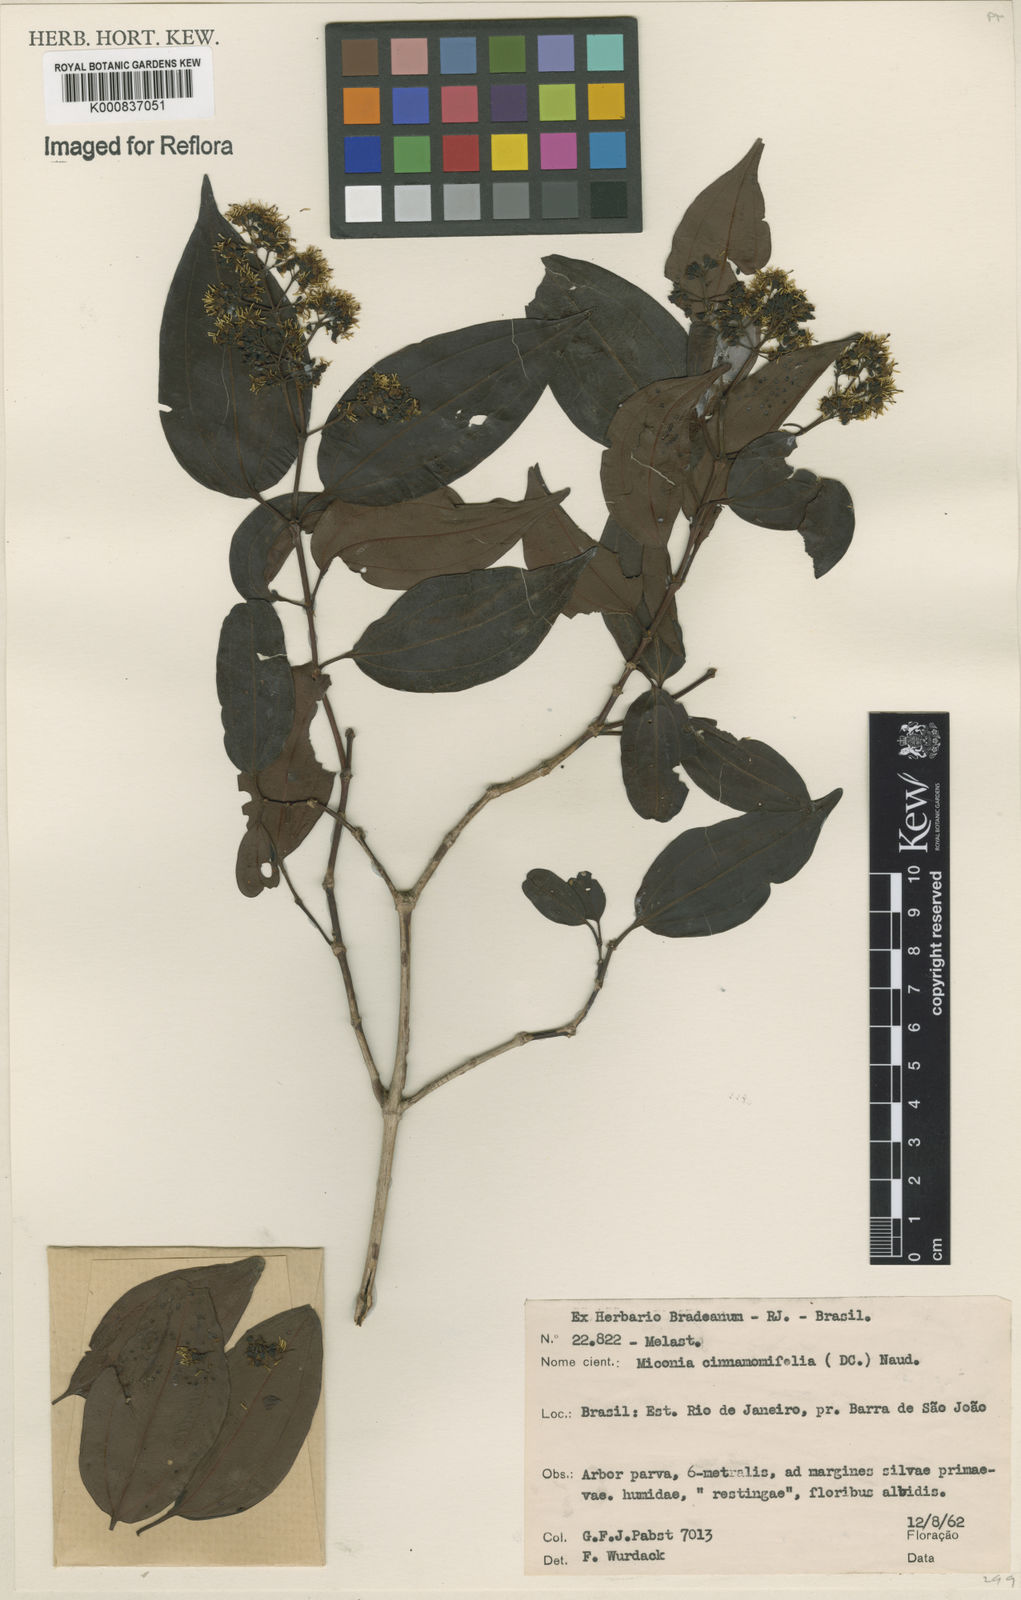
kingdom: Plantae
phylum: Tracheophyta
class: Magnoliopsida
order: Myrtales
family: Melastomataceae
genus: Miconia
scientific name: Miconia cinnamomifolia
